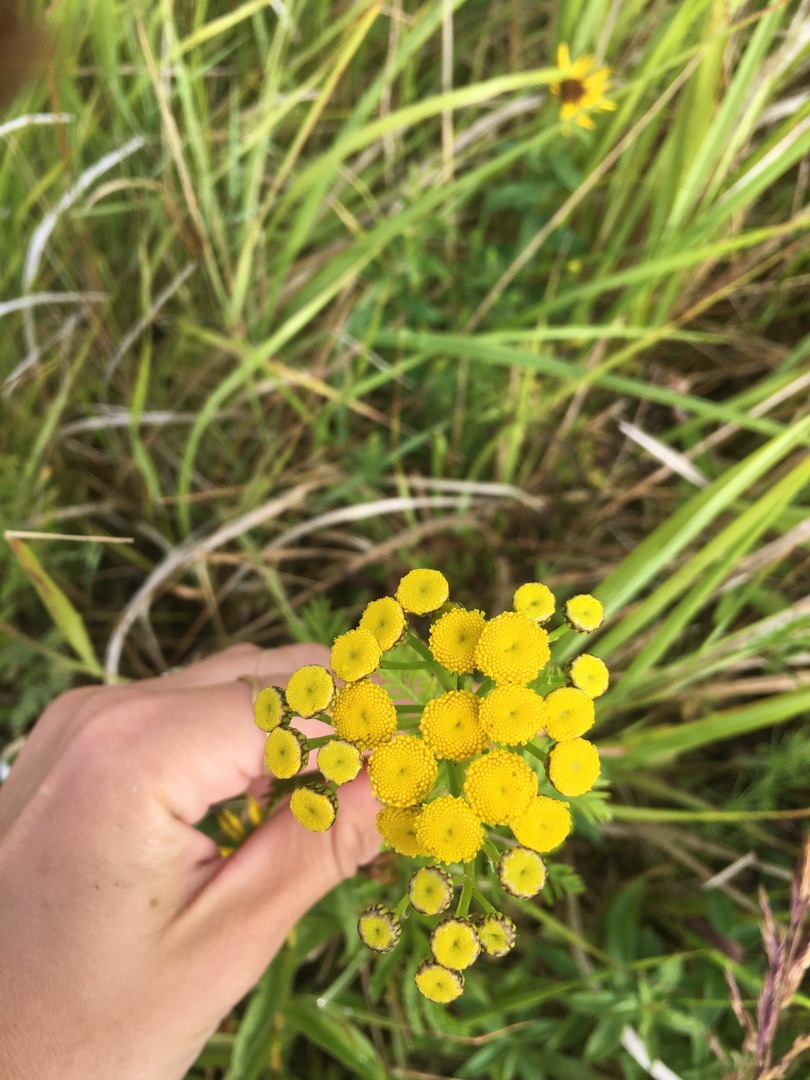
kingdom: Plantae
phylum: Tracheophyta
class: Magnoliopsida
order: Asterales
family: Asteraceae
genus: Tanacetum
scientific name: Tanacetum vulgare
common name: Rejnfan
